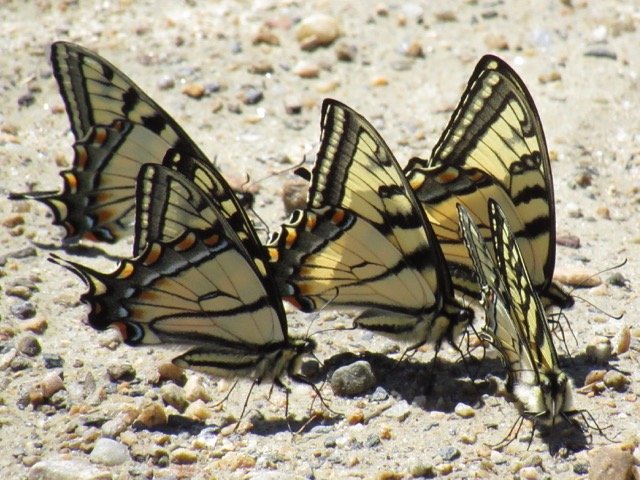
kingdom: Animalia
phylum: Arthropoda
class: Insecta
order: Lepidoptera
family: Papilionidae
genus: Pterourus
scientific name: Pterourus canadensis
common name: Canadian Tiger Swallowtail
